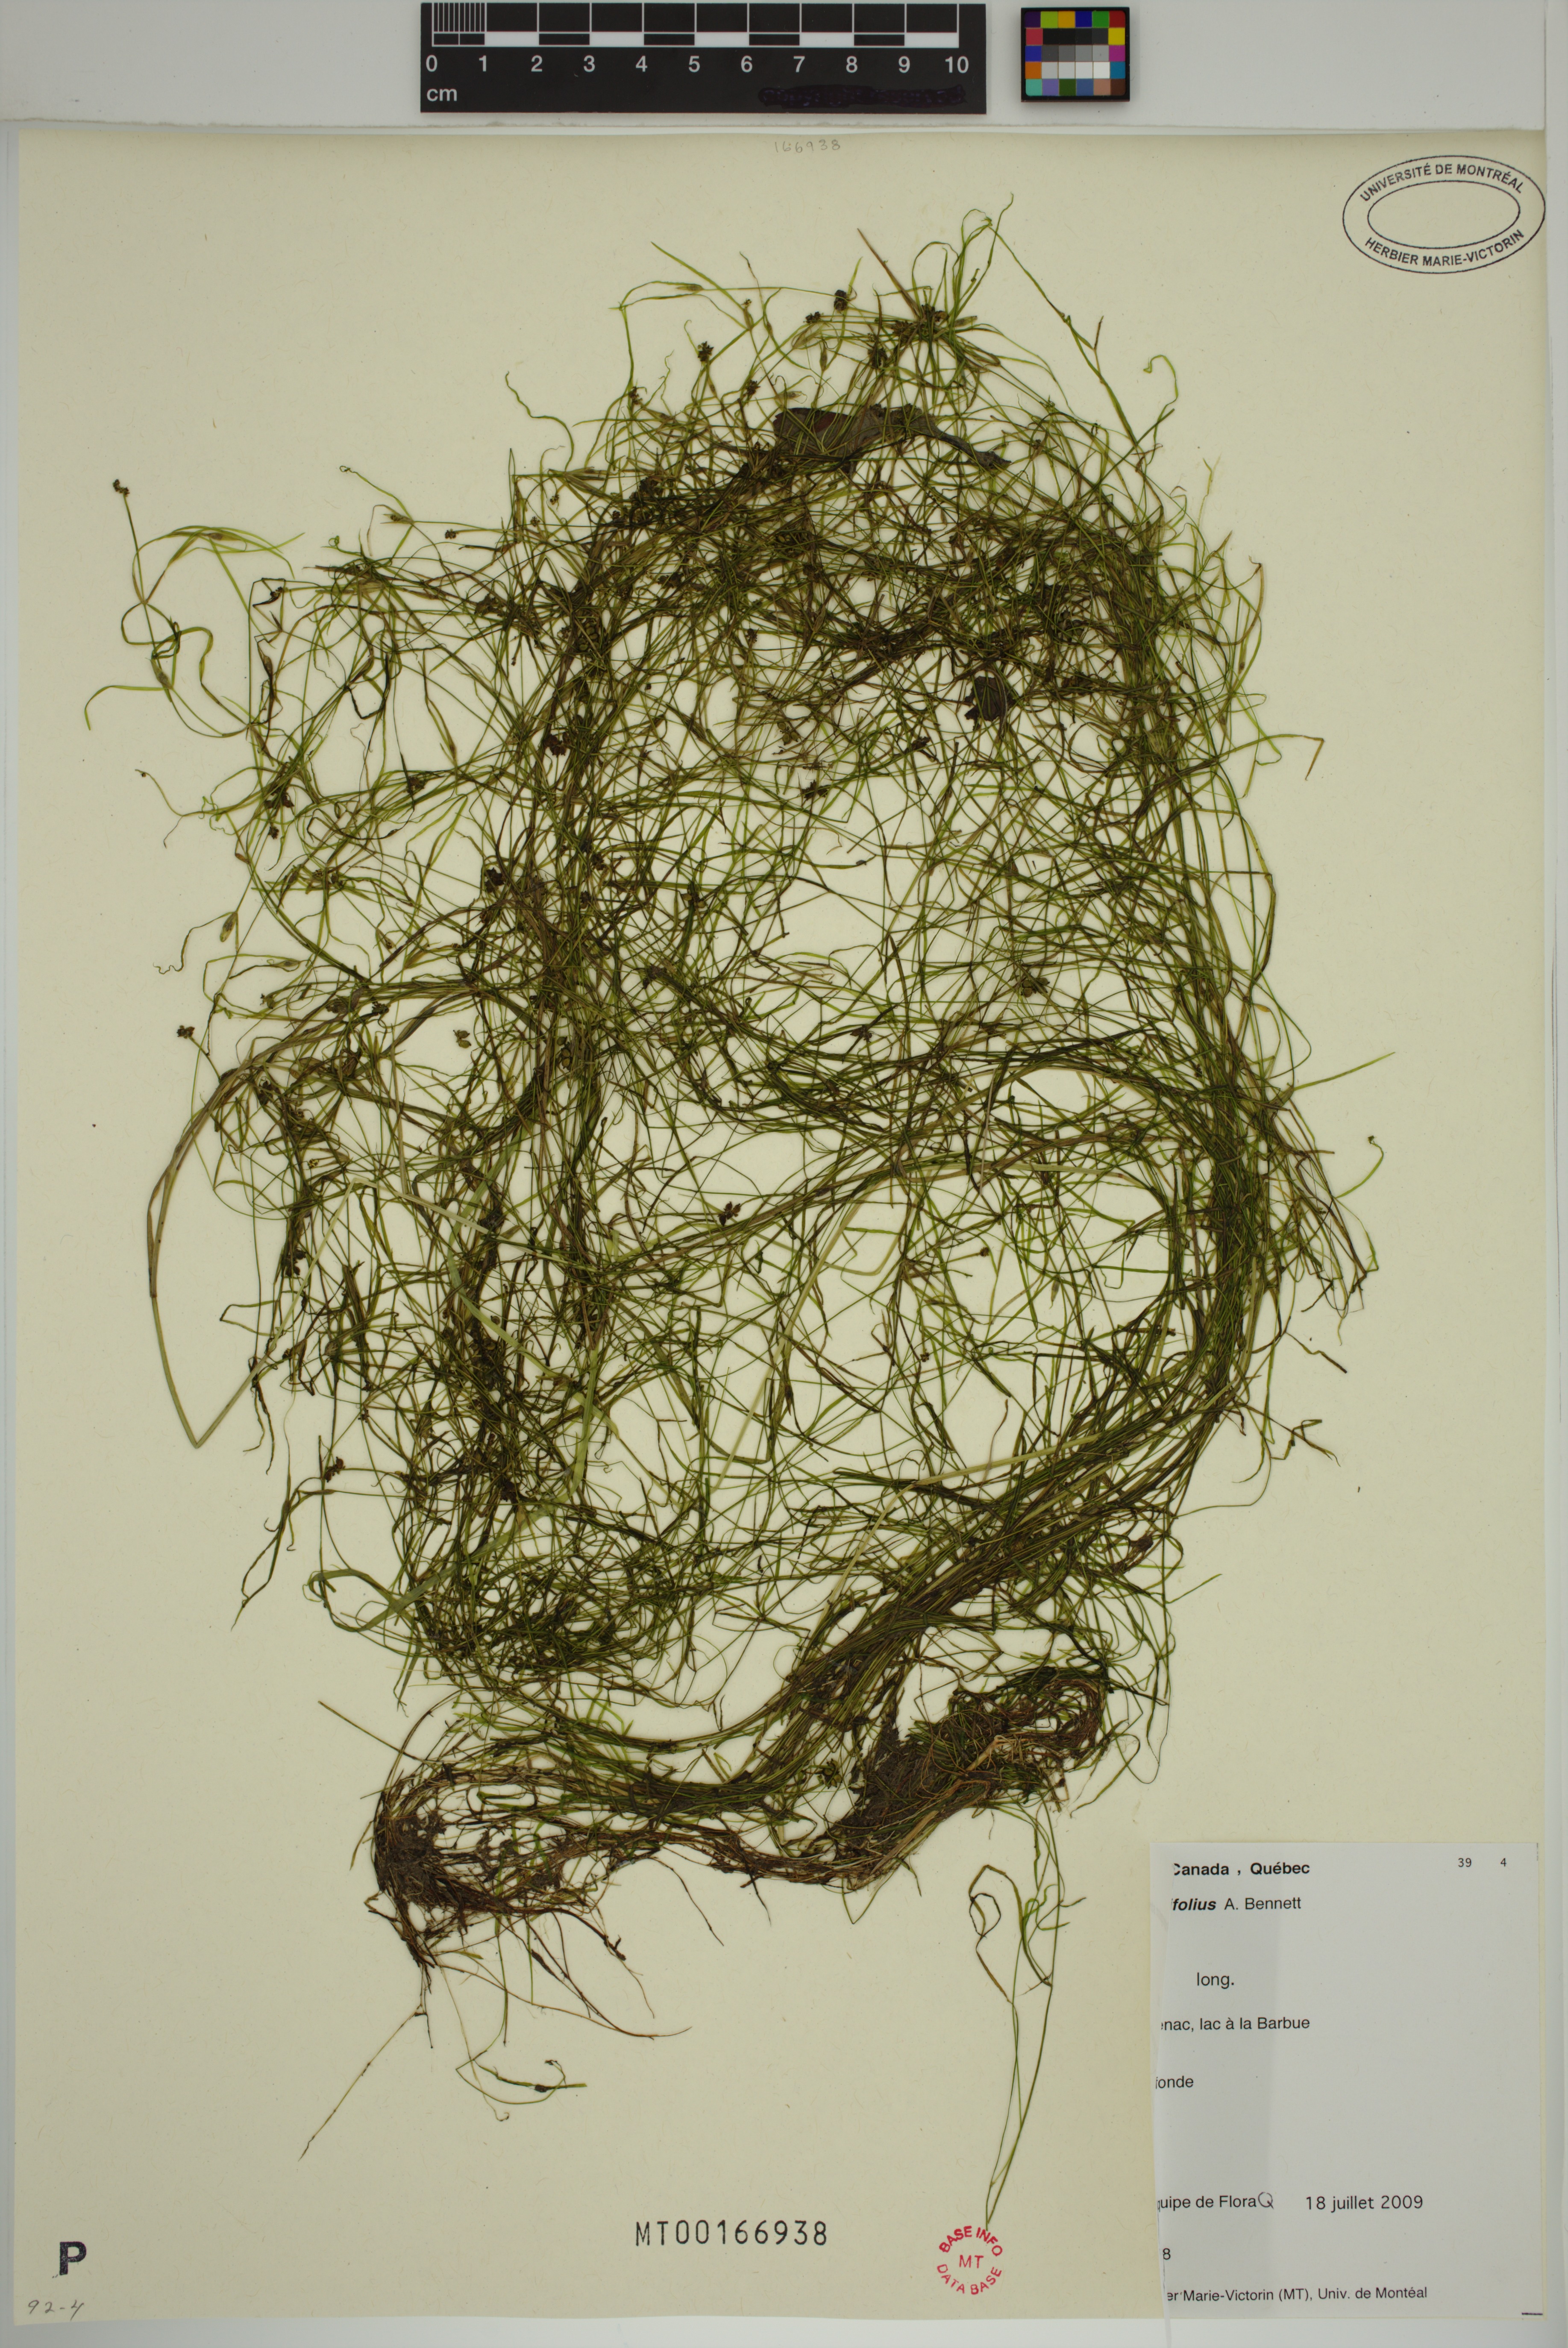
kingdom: Plantae
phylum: Tracheophyta
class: Liliopsida
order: Alismatales
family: Potamogetonaceae
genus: Potamogeton
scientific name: Potamogeton strictifolius
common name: Linear-leaved pondweed
